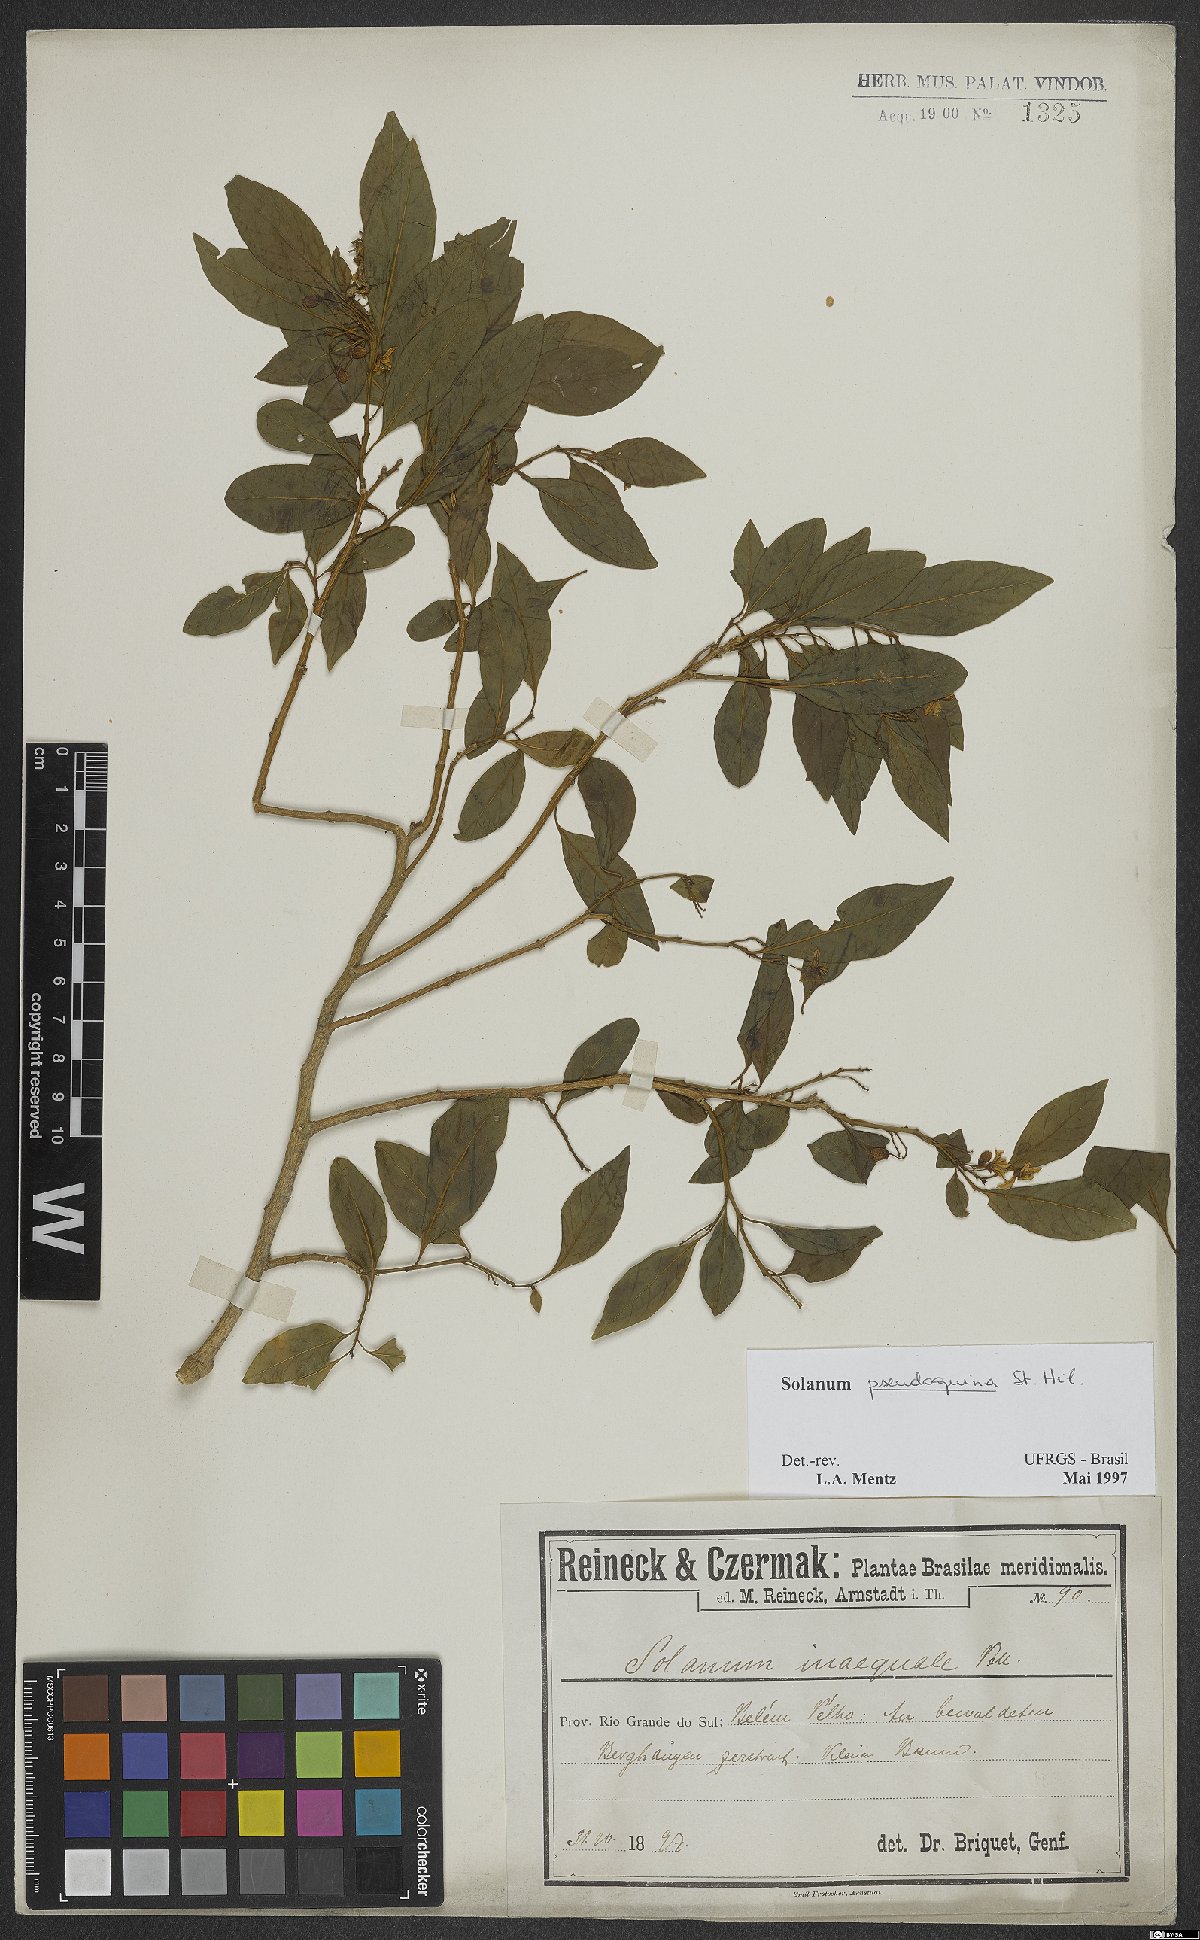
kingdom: Plantae
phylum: Tracheophyta
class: Magnoliopsida
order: Solanales
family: Solanaceae
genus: Solanum
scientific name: Solanum pseudoquina
